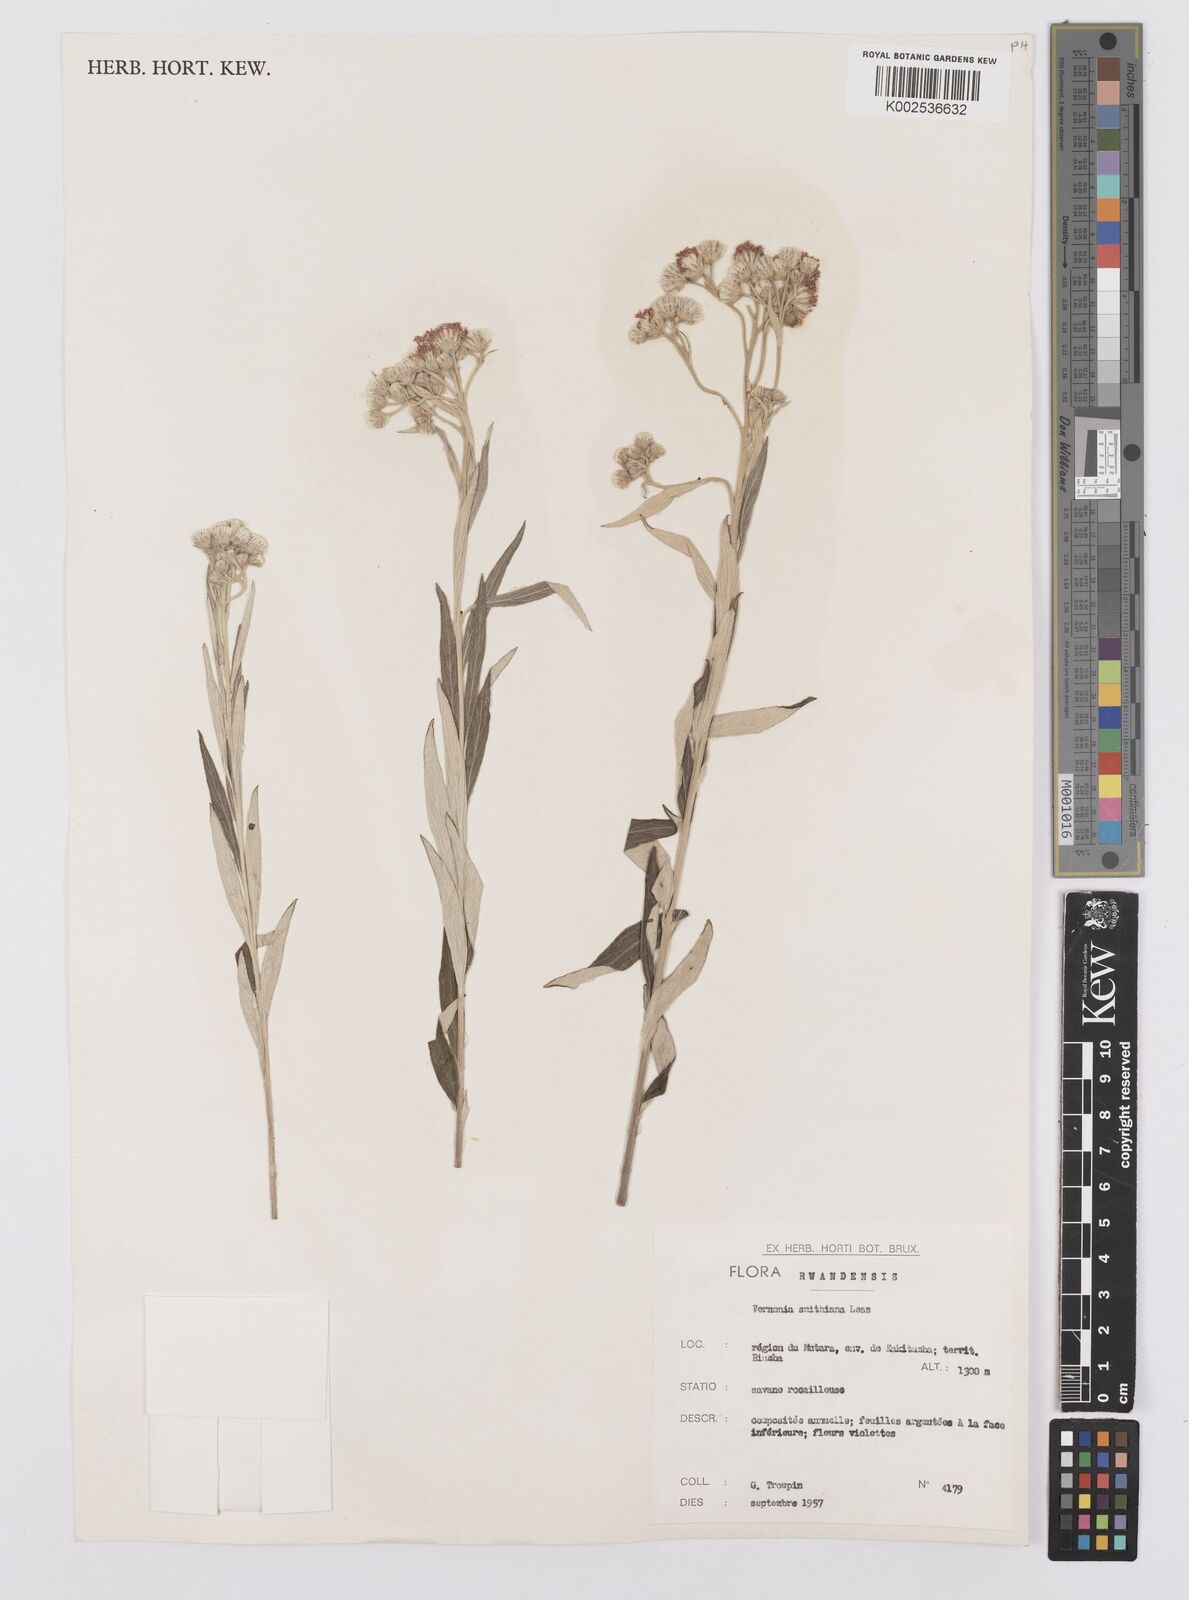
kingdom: Plantae
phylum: Tracheophyta
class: Magnoliopsida
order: Asterales
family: Asteraceae
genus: Hilliardiella
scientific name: Hilliardiella smithiana
